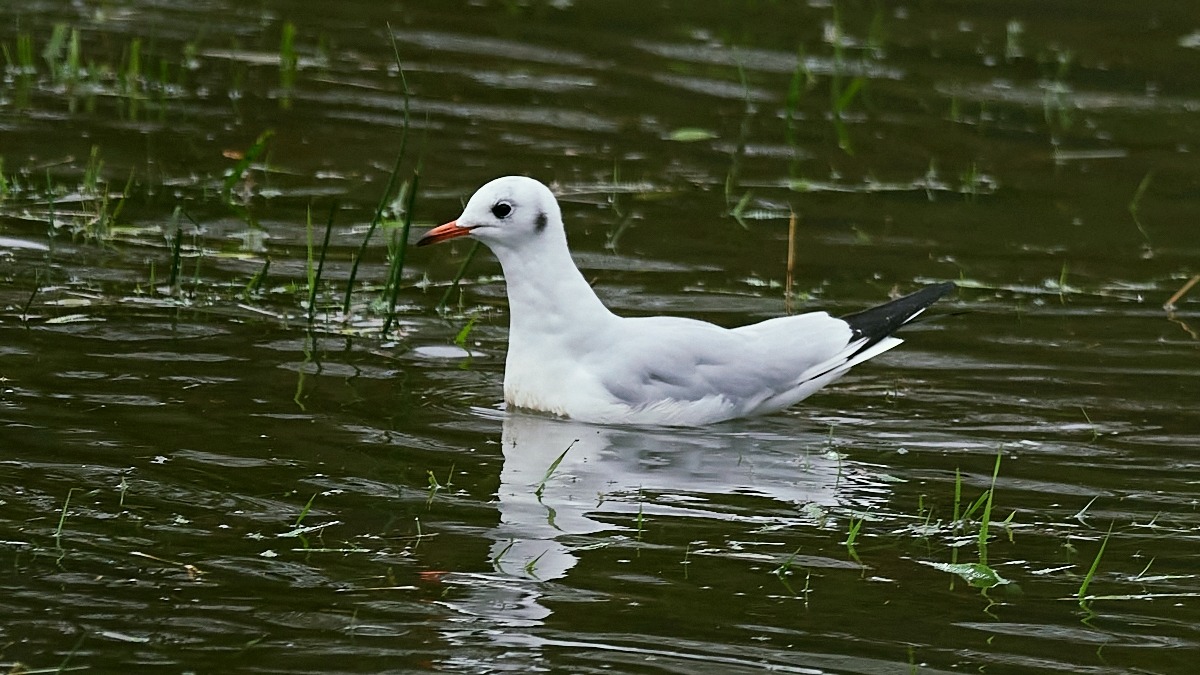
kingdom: Animalia
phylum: Chordata
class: Aves
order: Charadriiformes
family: Laridae
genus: Chroicocephalus
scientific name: Chroicocephalus ridibundus
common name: Hættemåge
